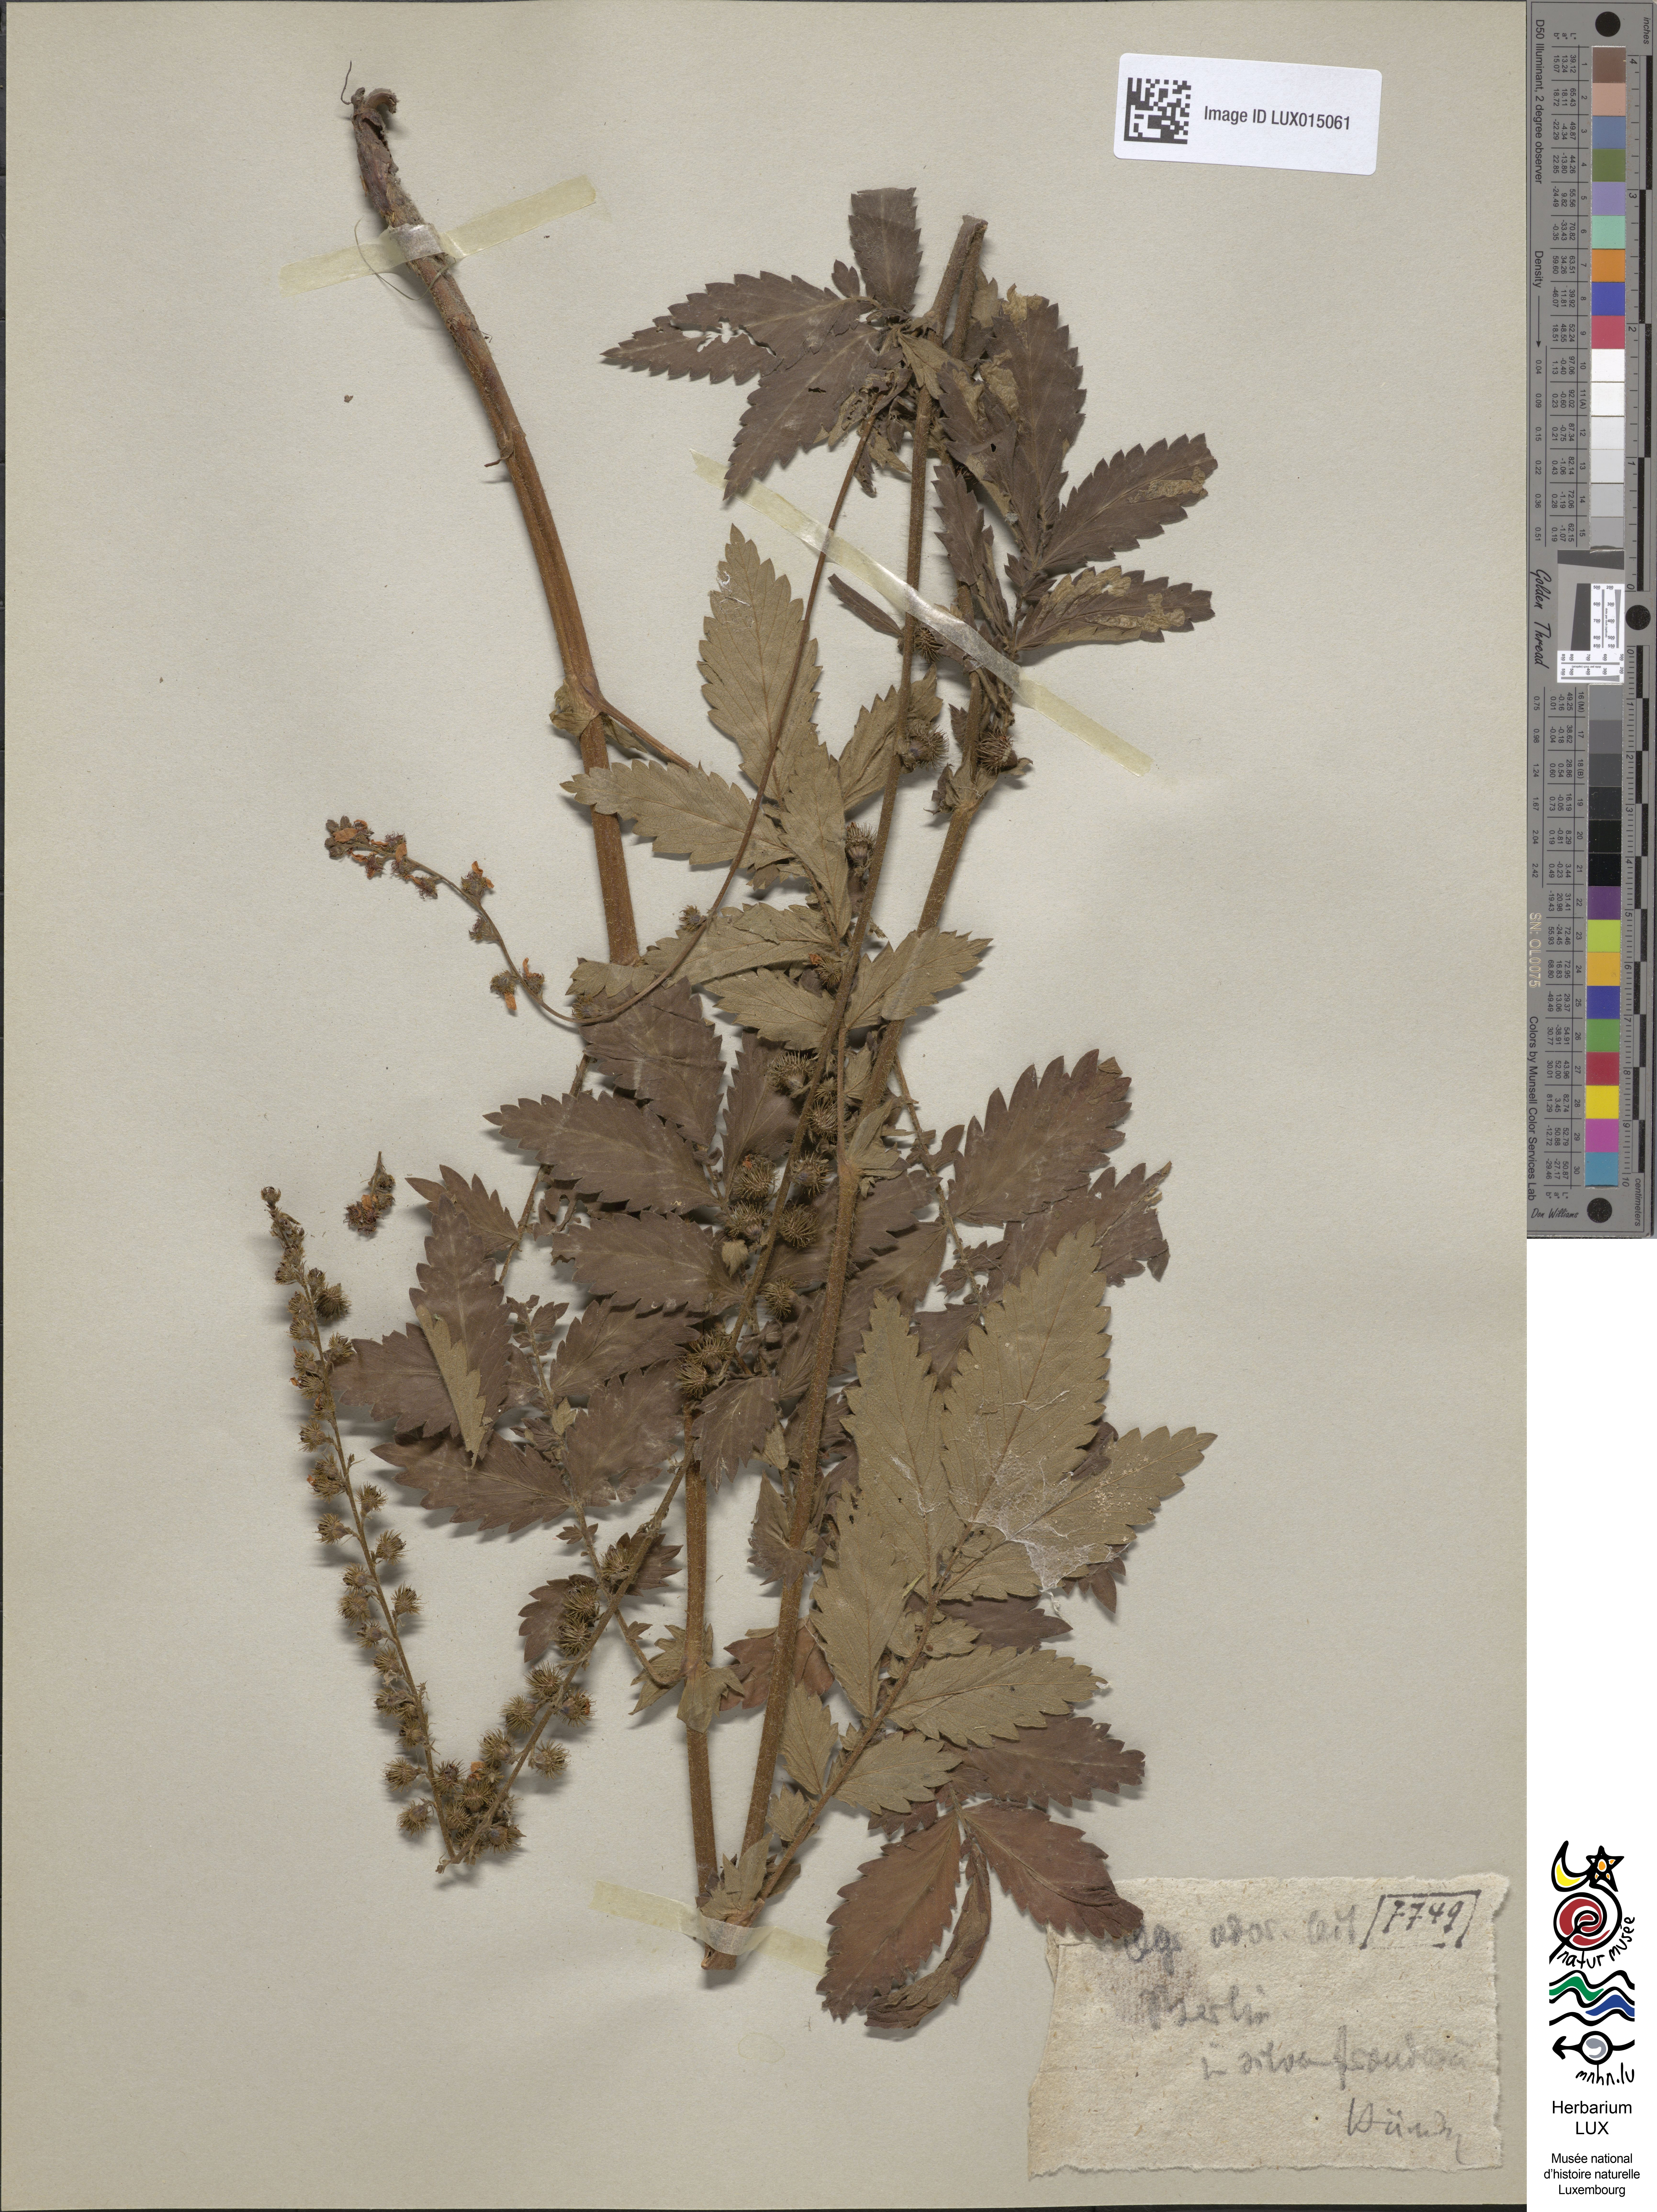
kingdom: Plantae
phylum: Tracheophyta
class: Magnoliopsida
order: Rosales
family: Rosaceae
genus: Agrimonia
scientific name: Agrimonia repens
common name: Creeping agrimony
